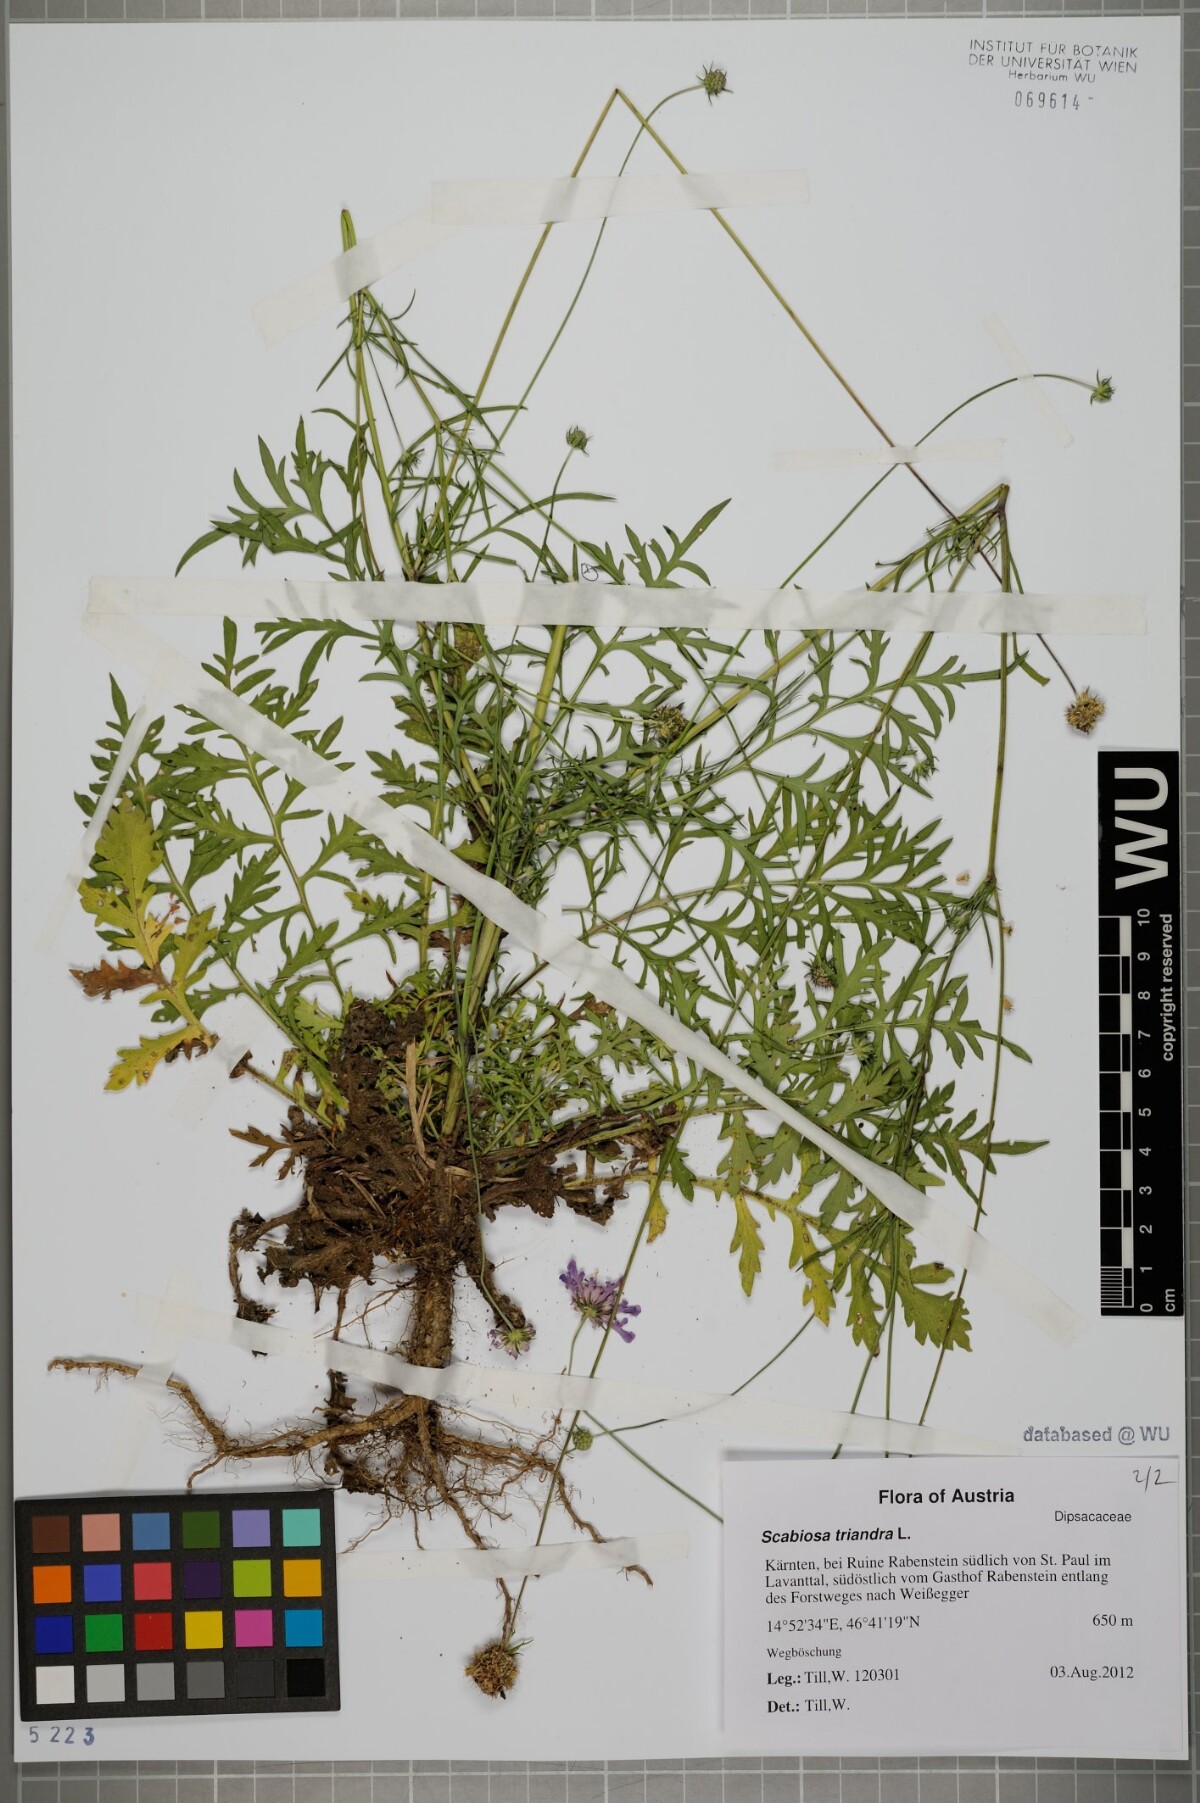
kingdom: Plantae
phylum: Tracheophyta
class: Magnoliopsida
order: Dipsacales
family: Caprifoliaceae
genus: Scabiosa
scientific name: Scabiosa triandra
